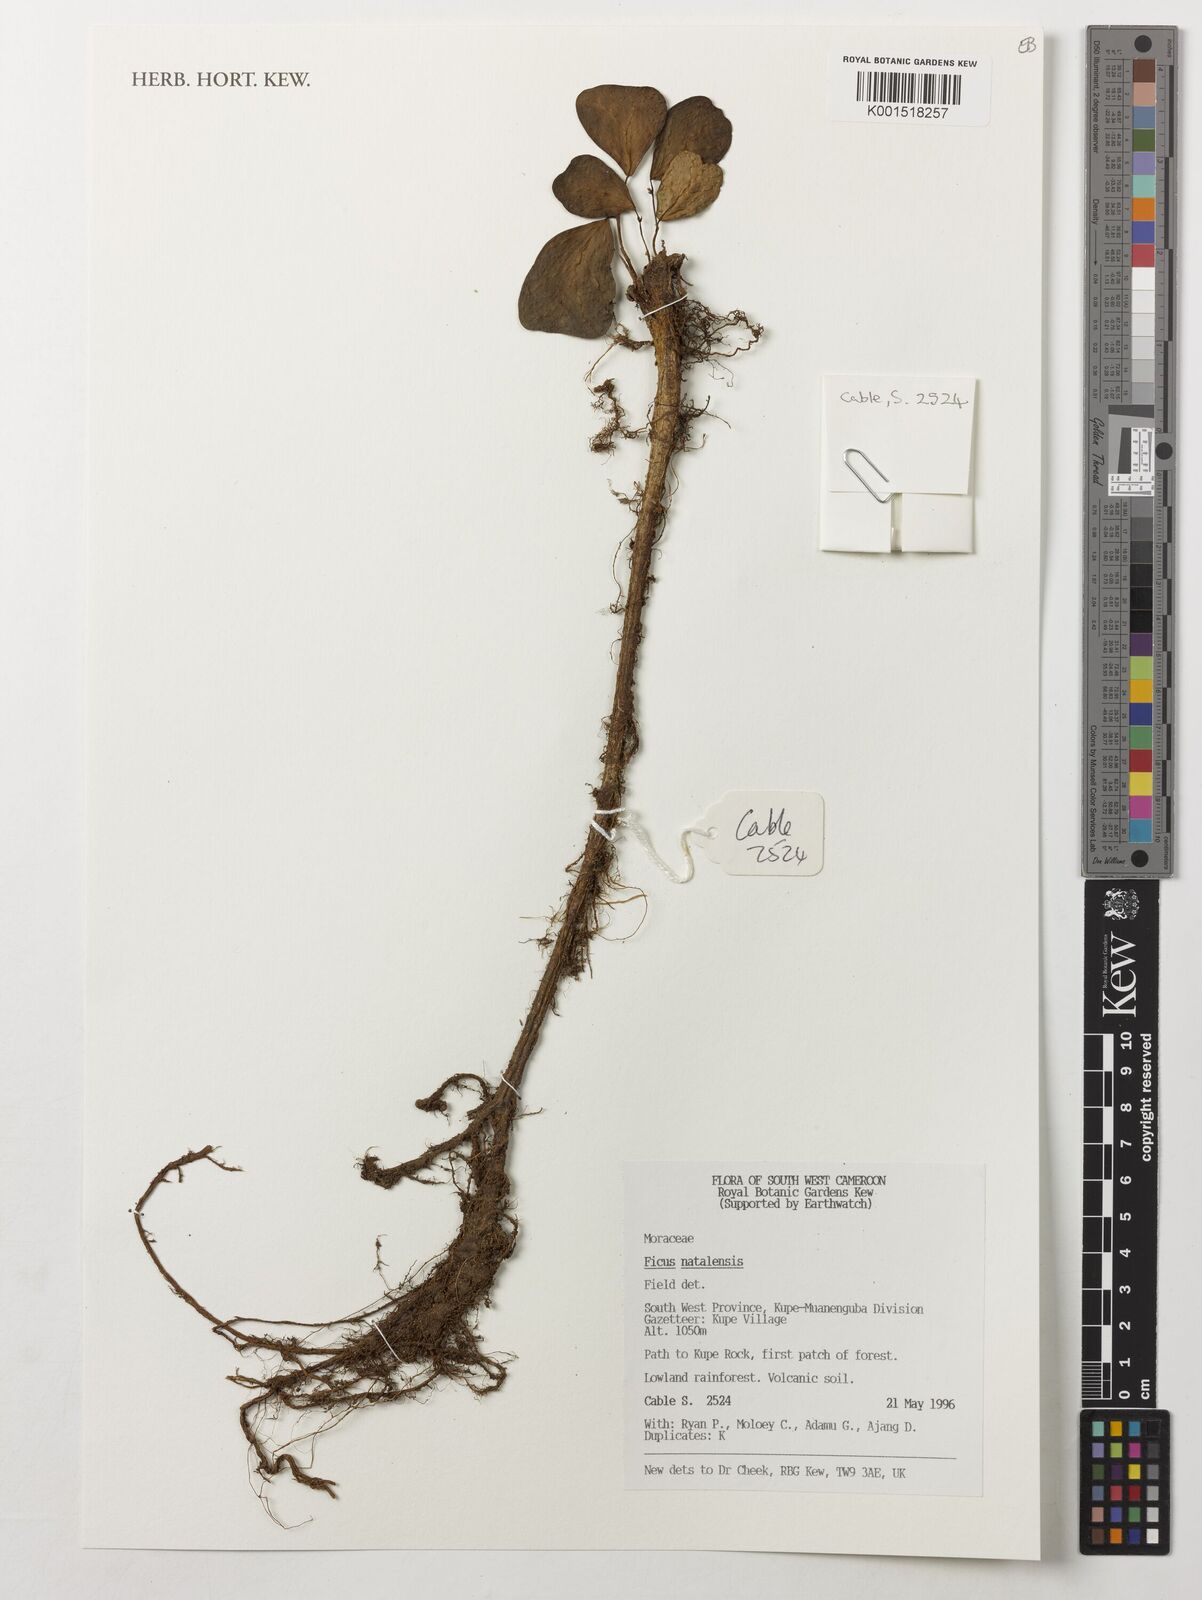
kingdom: Plantae
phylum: Tracheophyta
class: Magnoliopsida
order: Rosales
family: Moraceae
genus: Ficus
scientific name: Ficus natalensis
